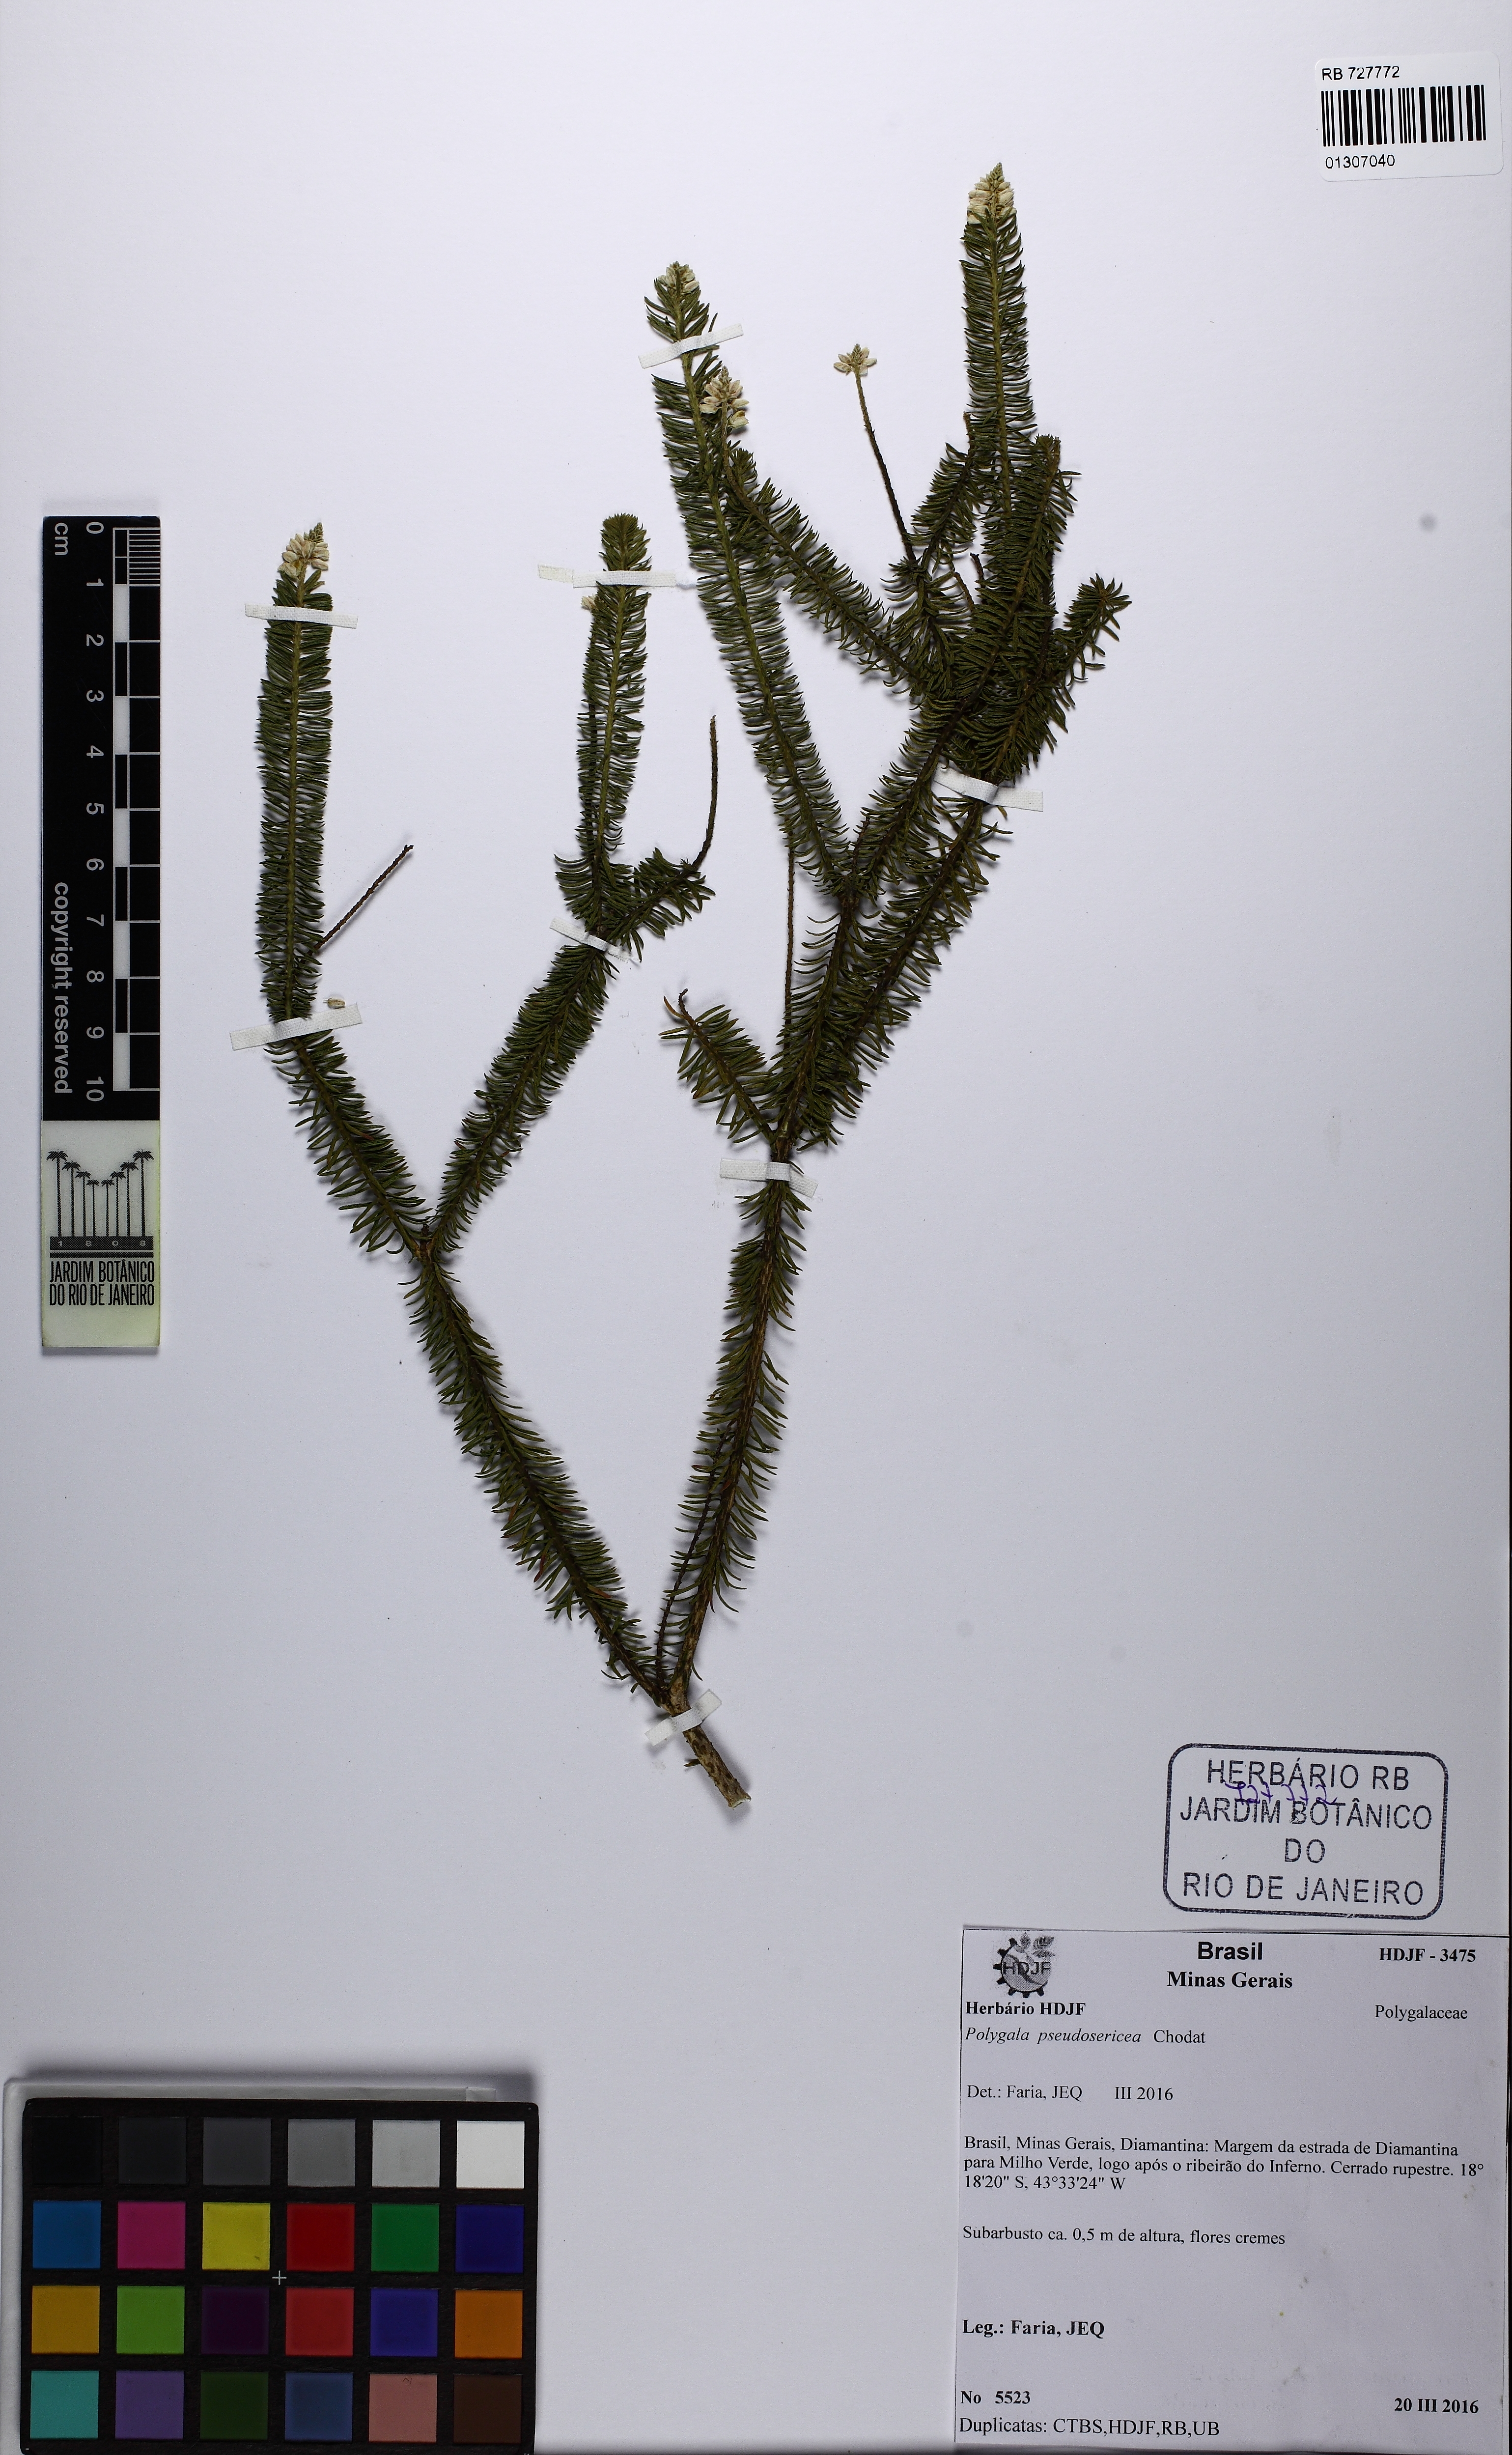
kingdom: Plantae
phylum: Tracheophyta
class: Magnoliopsida
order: Fabales
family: Polygalaceae
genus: Polygala
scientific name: Polygala pseudosericea
